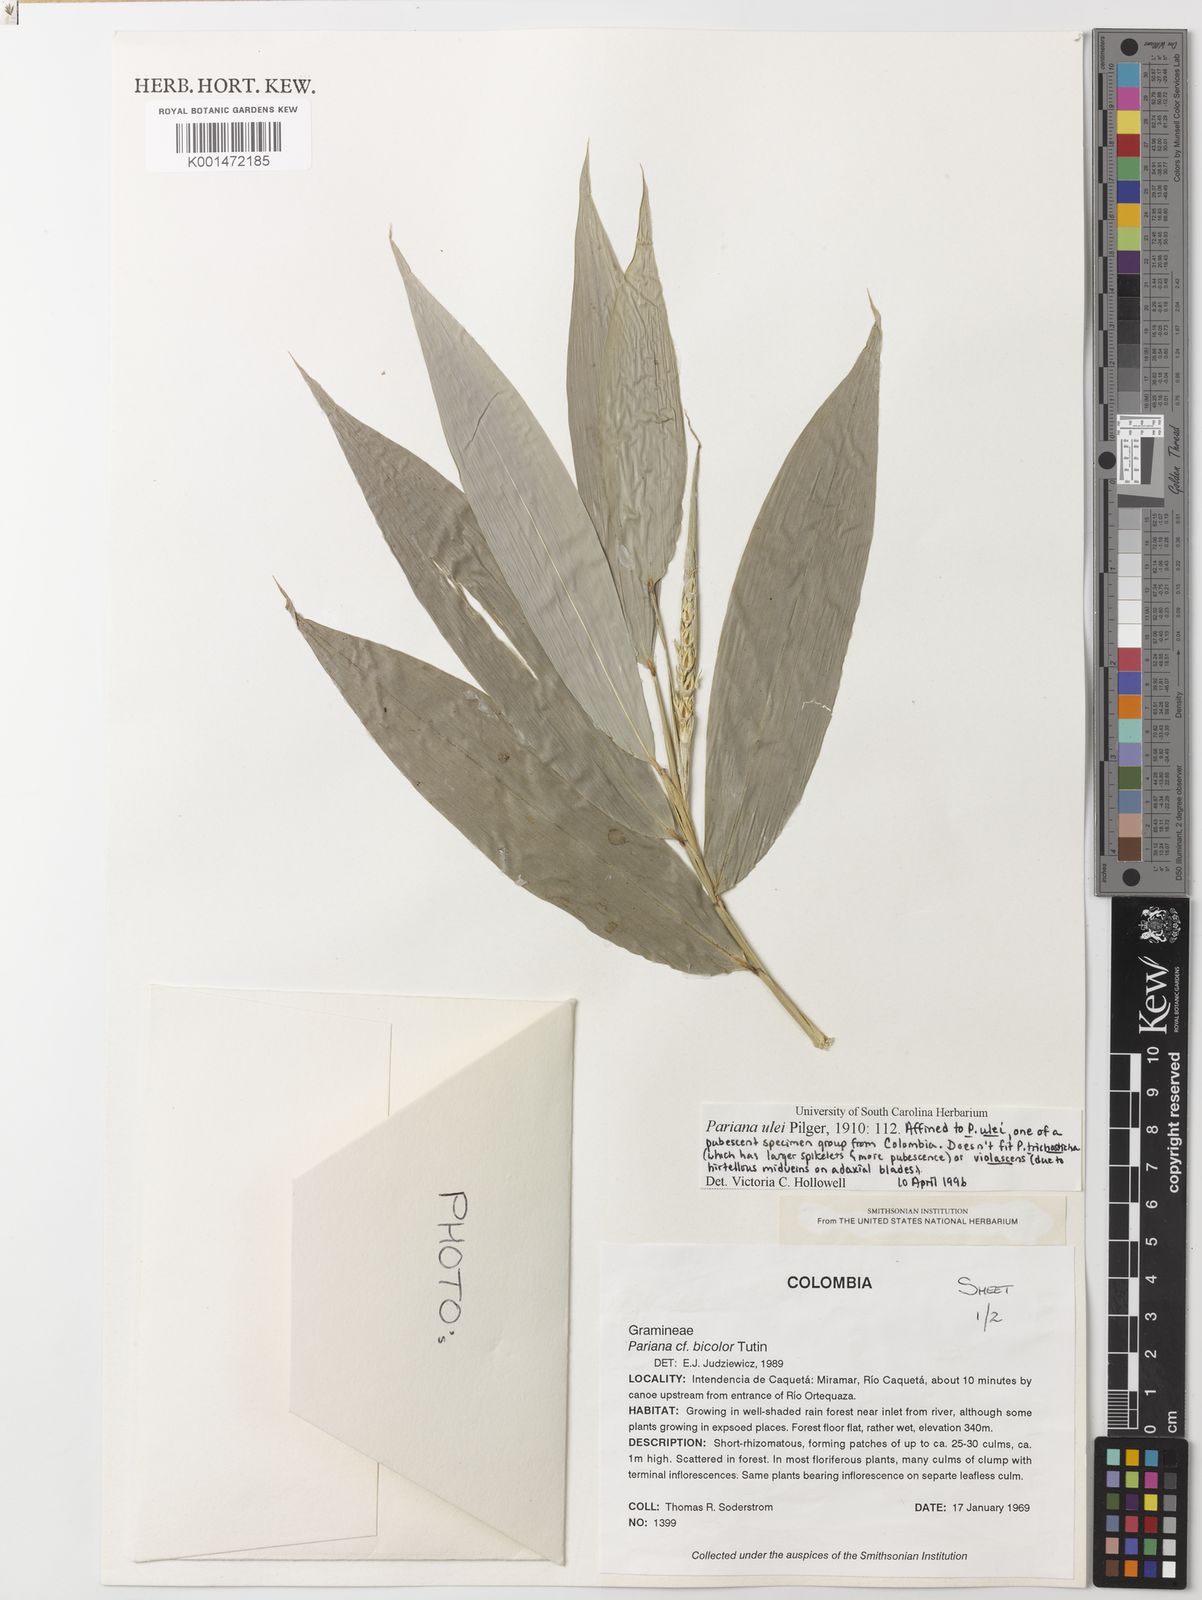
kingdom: Plantae
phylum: Tracheophyta
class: Liliopsida
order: Poales
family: Poaceae
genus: Pariana
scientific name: Pariana ulei
